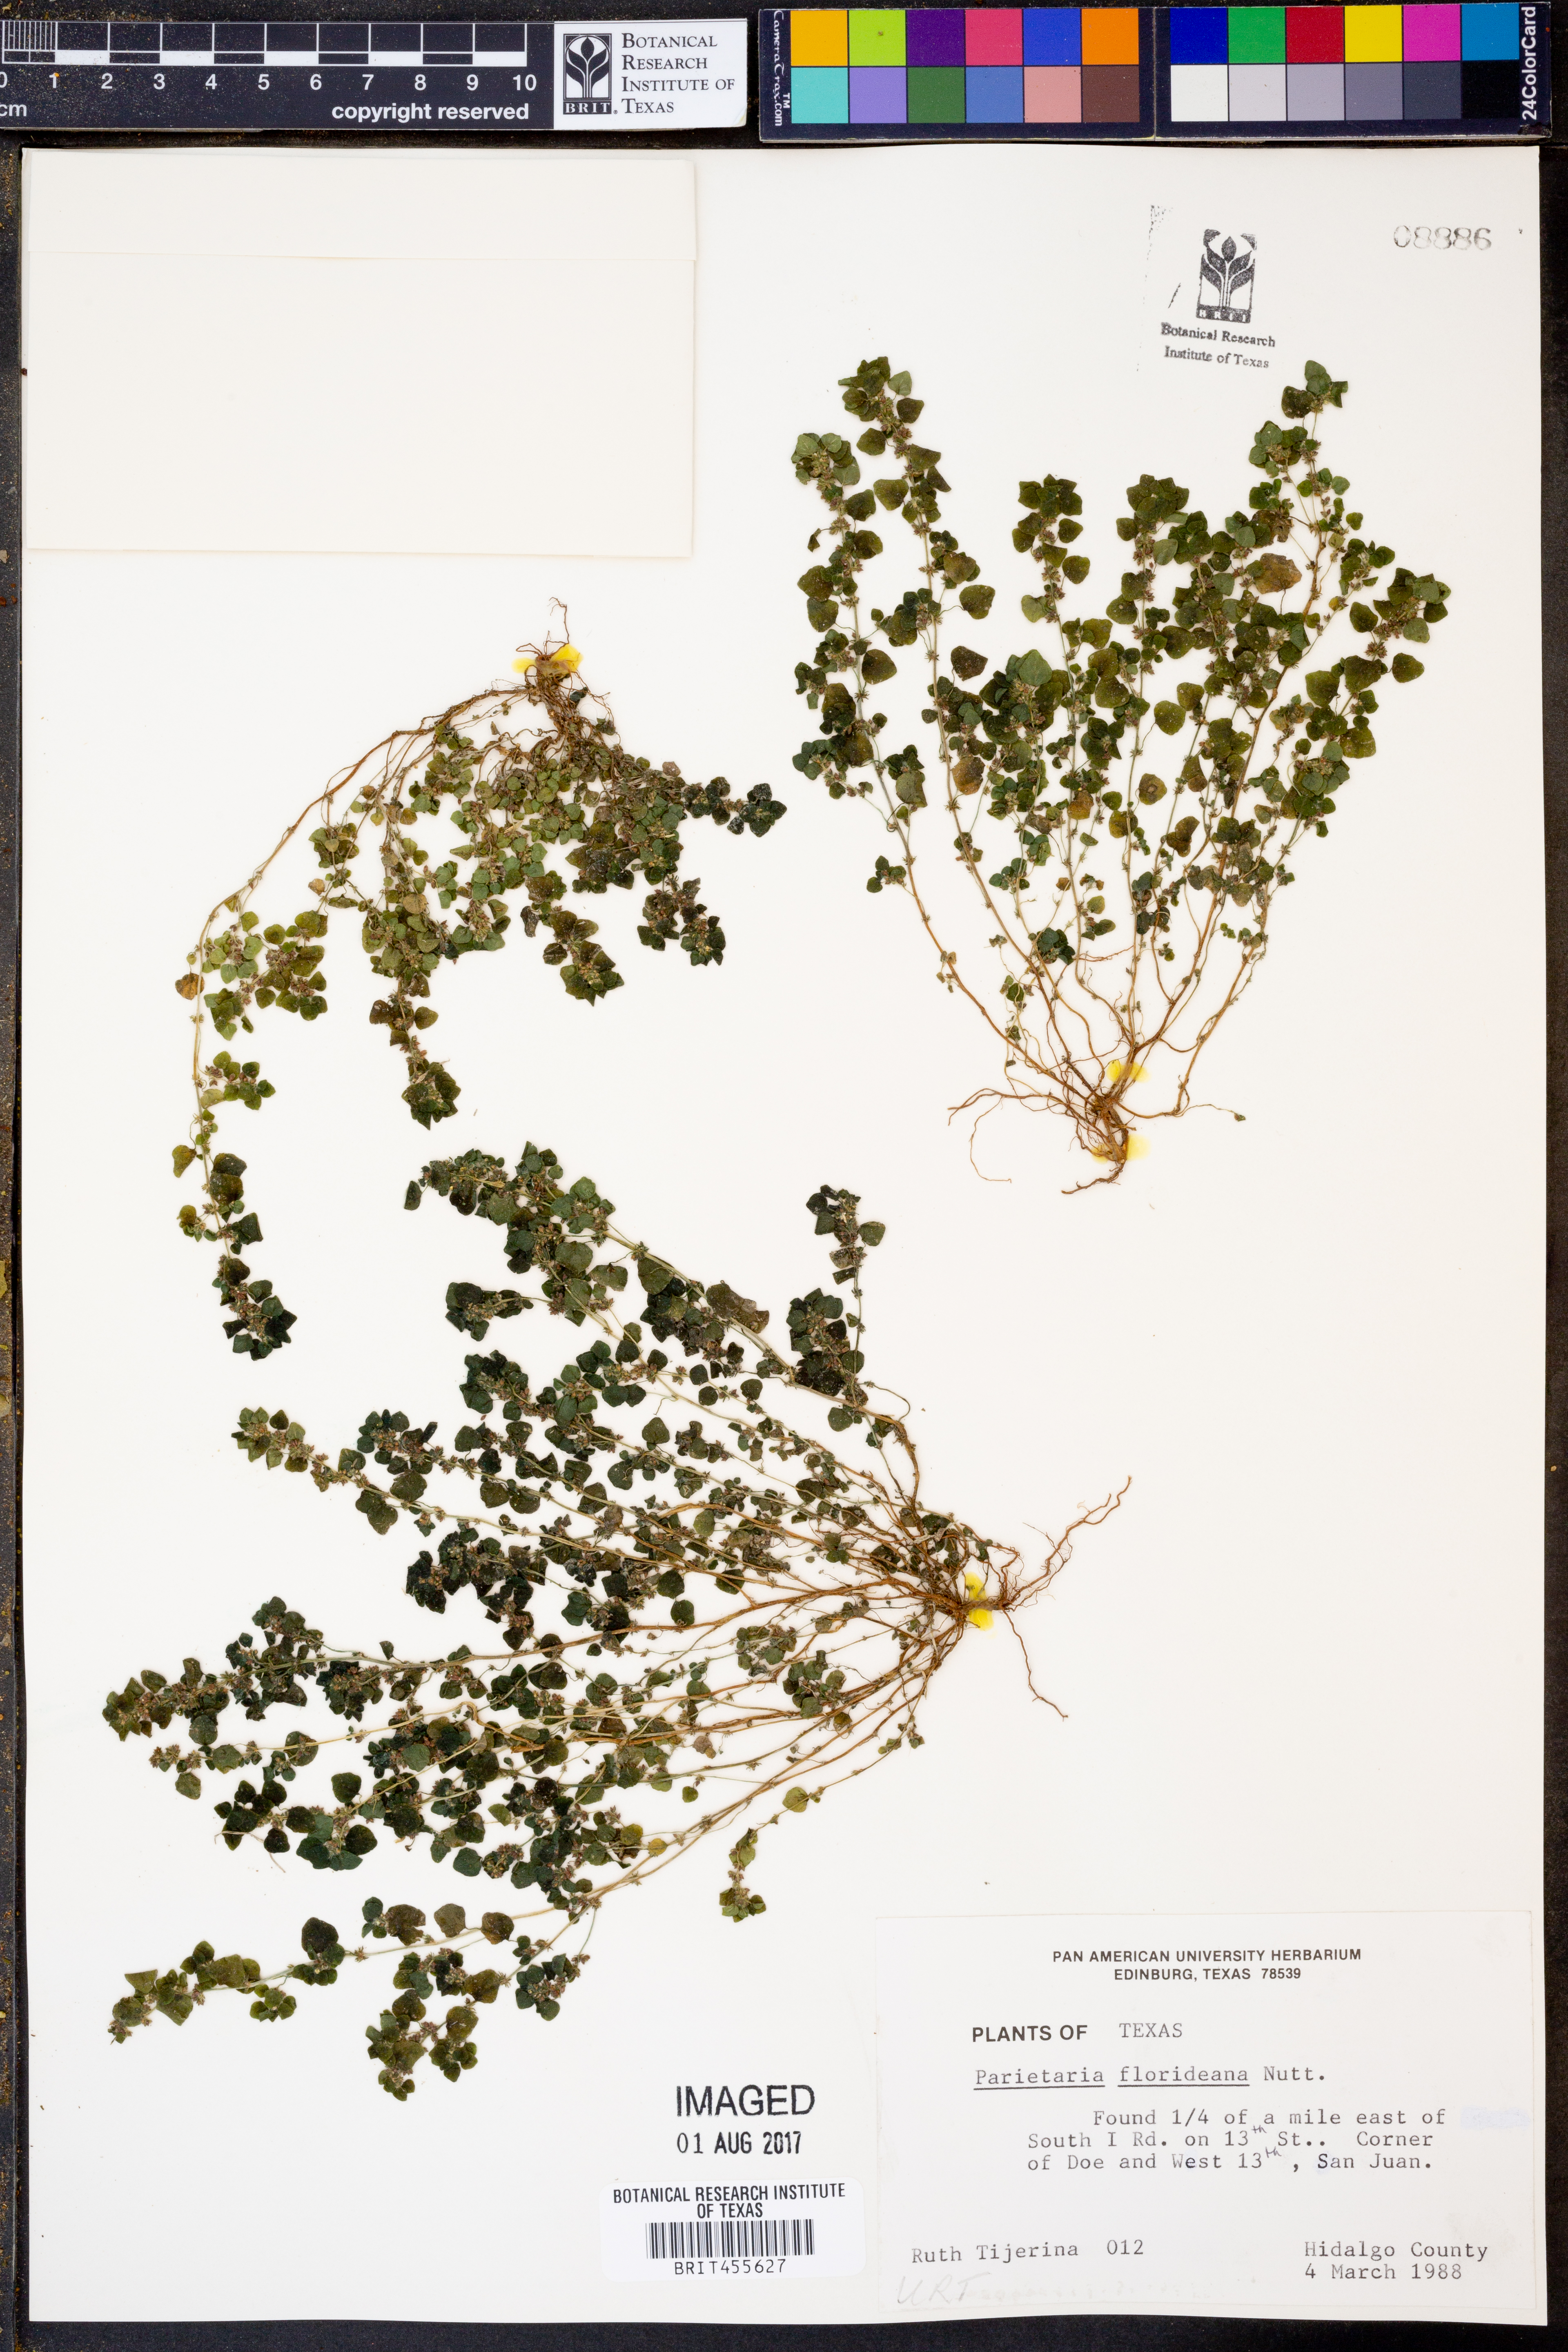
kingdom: Plantae
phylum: Tracheophyta
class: Magnoliopsida
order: Rosales
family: Urticaceae
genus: Parietaria
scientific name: Parietaria floridana
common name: Florida pellitory
